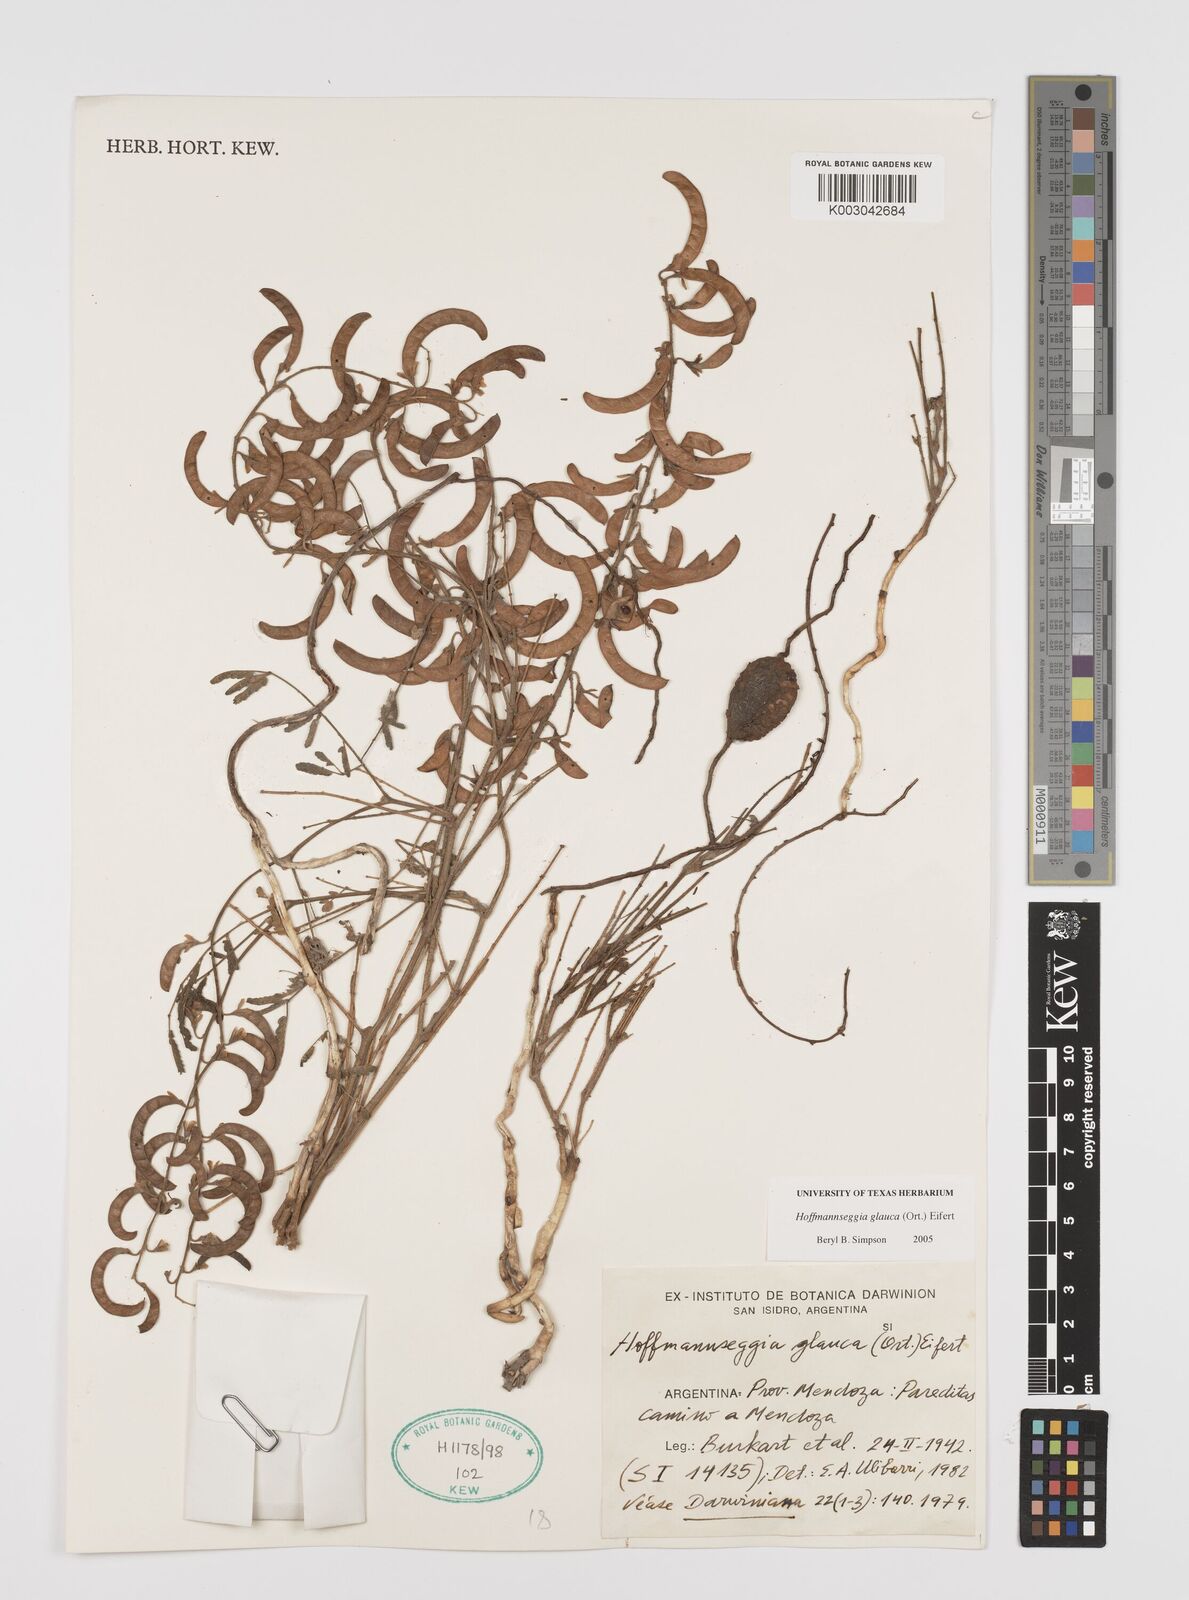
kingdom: Plantae
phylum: Tracheophyta
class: Magnoliopsida
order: Fabales
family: Fabaceae
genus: Hoffmannseggia
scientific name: Hoffmannseggia glauca
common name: Pignut
